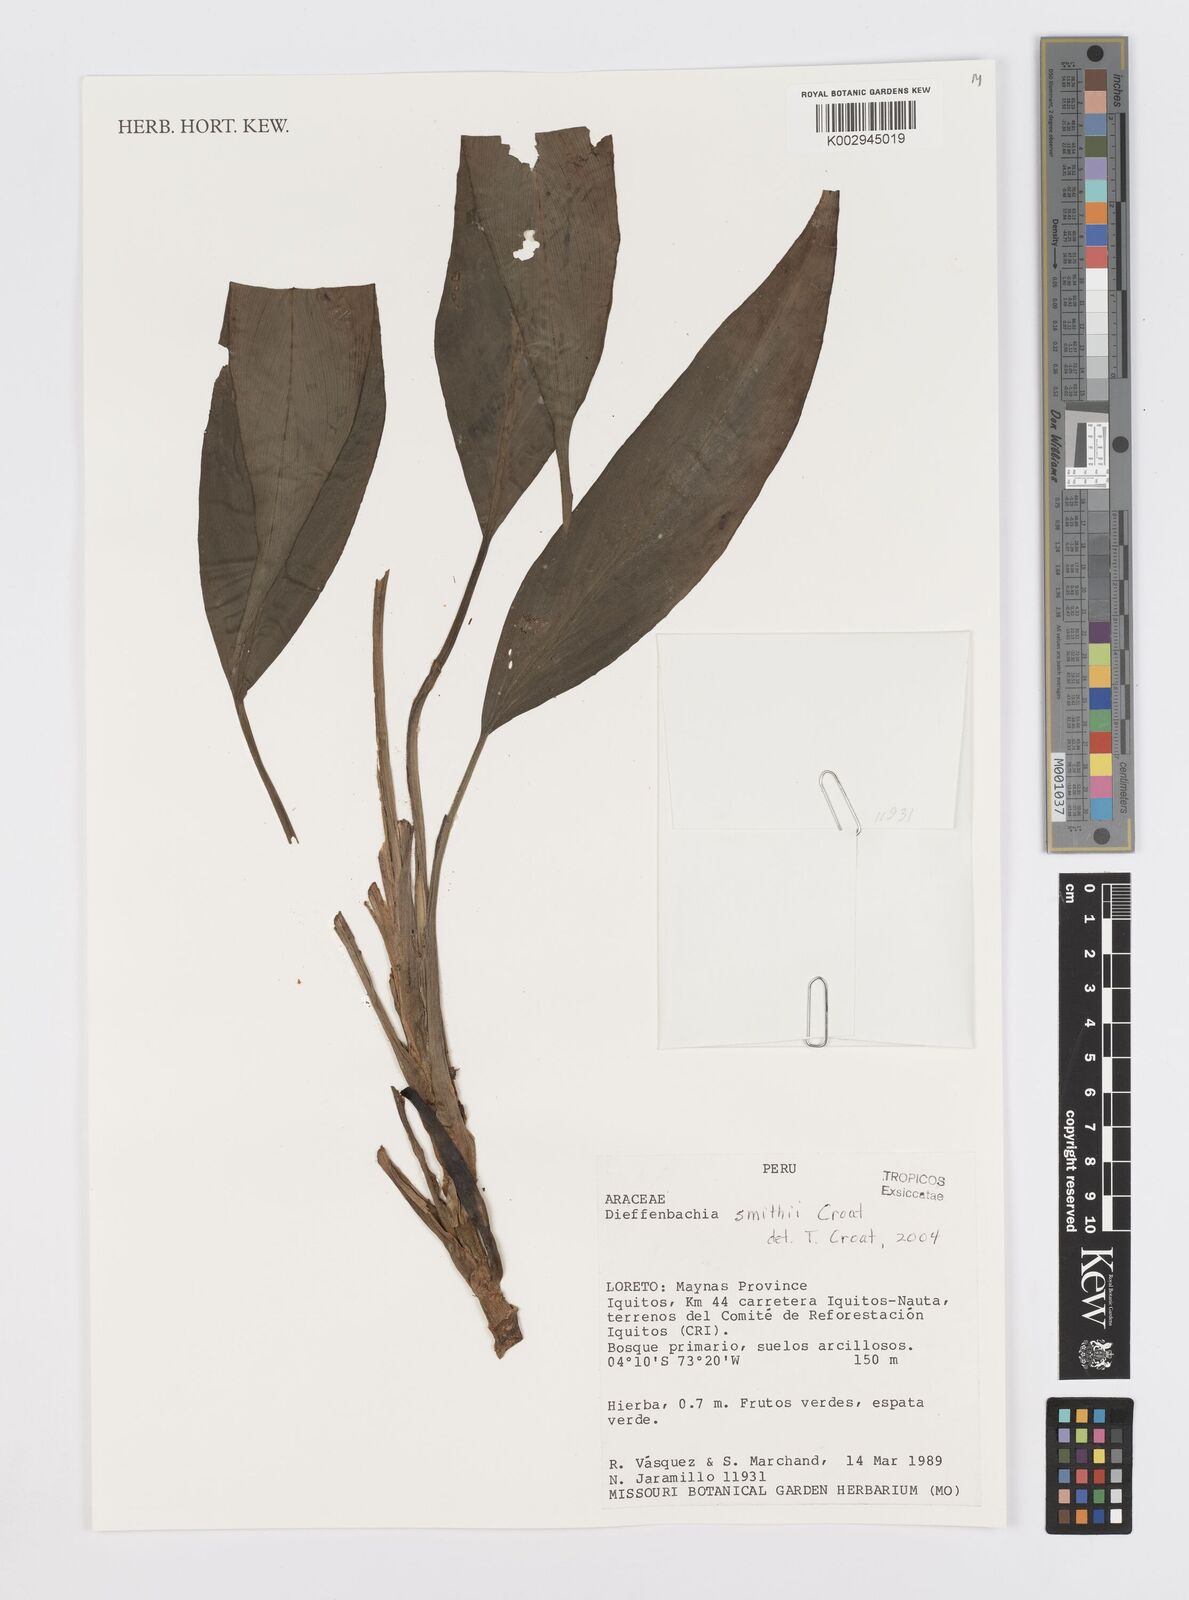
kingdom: Plantae
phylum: Tracheophyta
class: Liliopsida
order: Alismatales
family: Araceae
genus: Dieffenbachia
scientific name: Dieffenbachia
